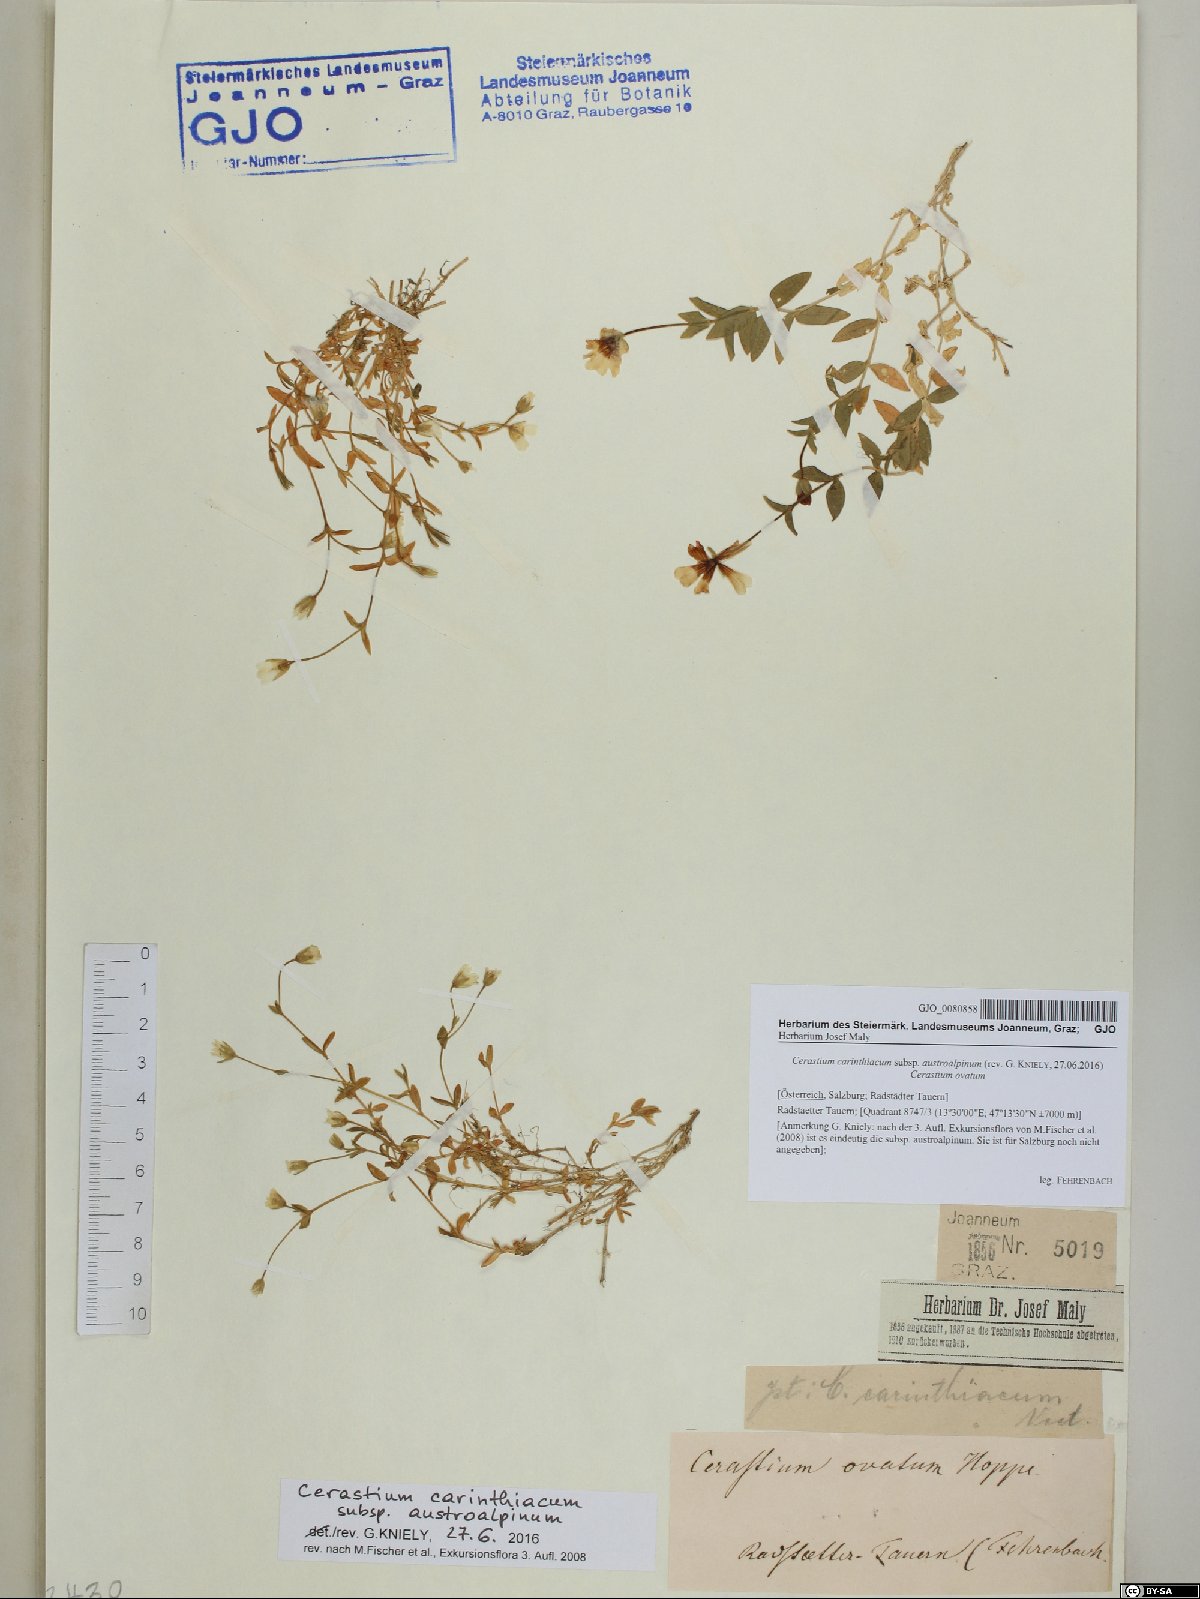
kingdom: Plantae
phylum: Tracheophyta
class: Magnoliopsida
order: Caryophyllales
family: Caryophyllaceae
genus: Cerastium
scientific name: Cerastium carinthiacum
